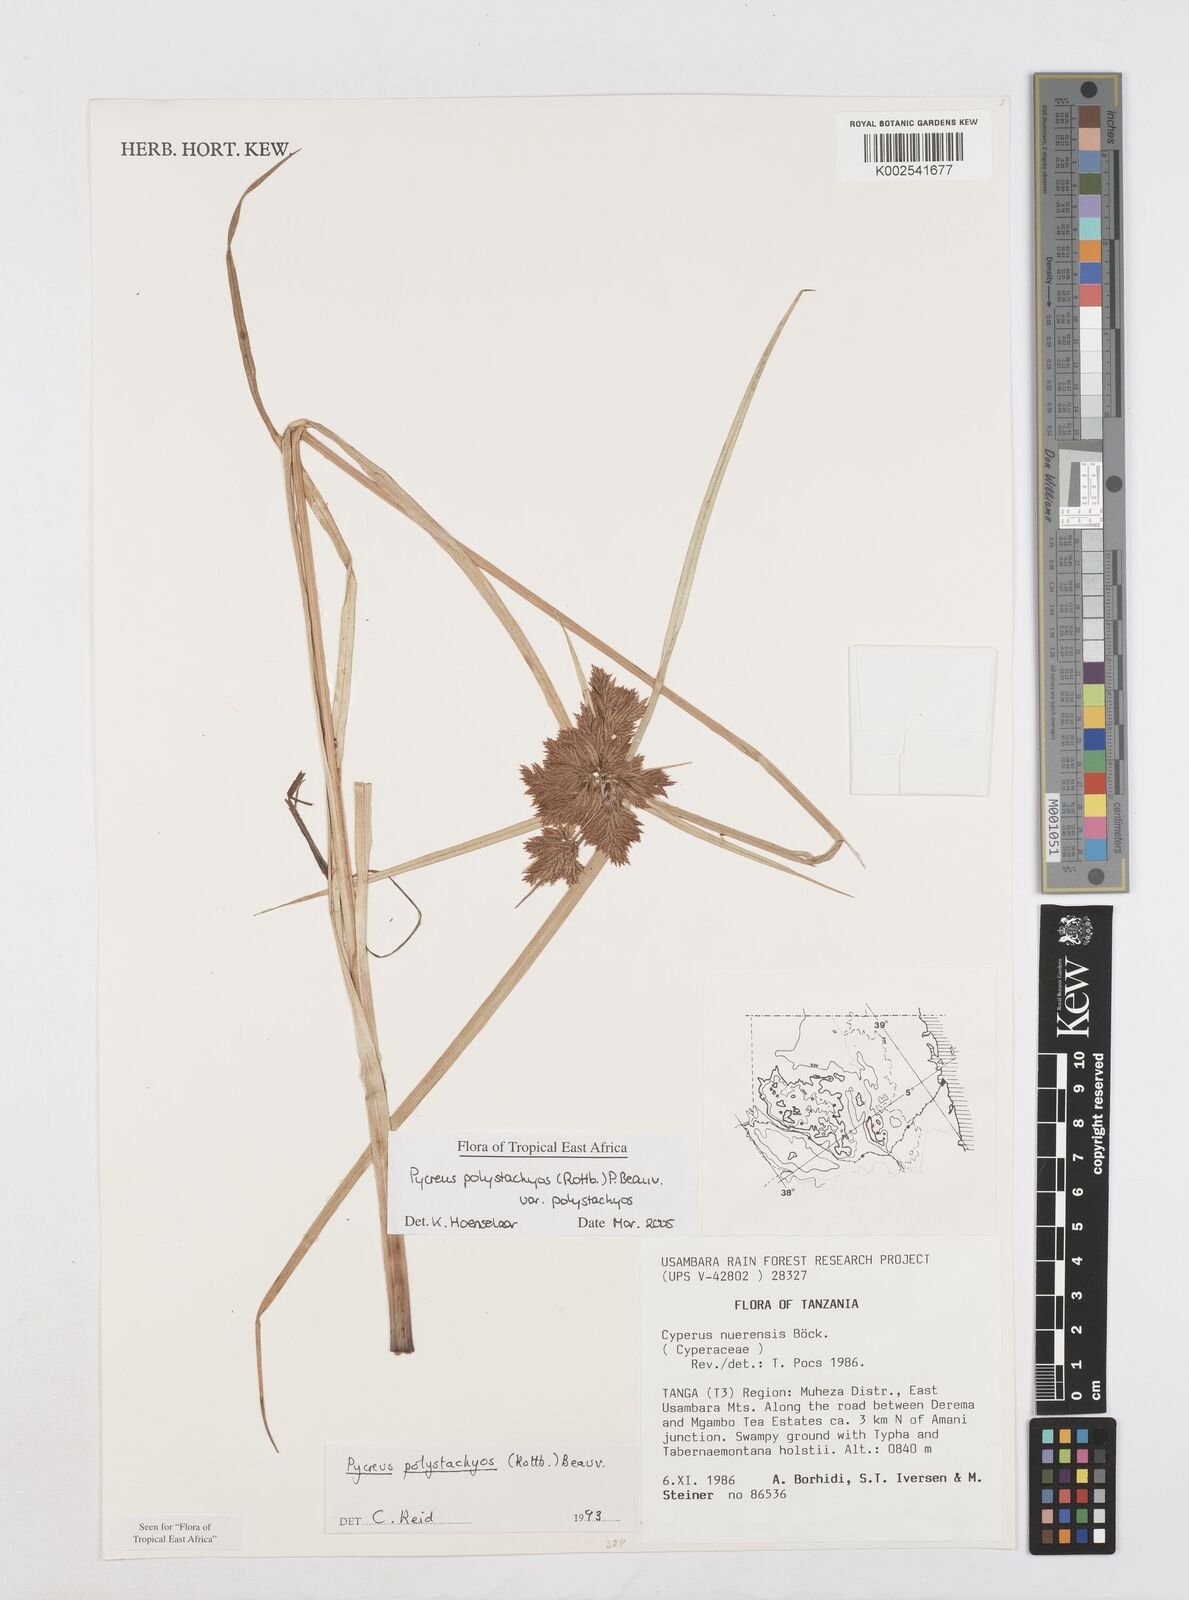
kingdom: Plantae
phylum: Tracheophyta
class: Liliopsida
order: Poales
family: Cyperaceae
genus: Cyperus
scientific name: Cyperus polystachyos
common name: Bunchy flat sedge
